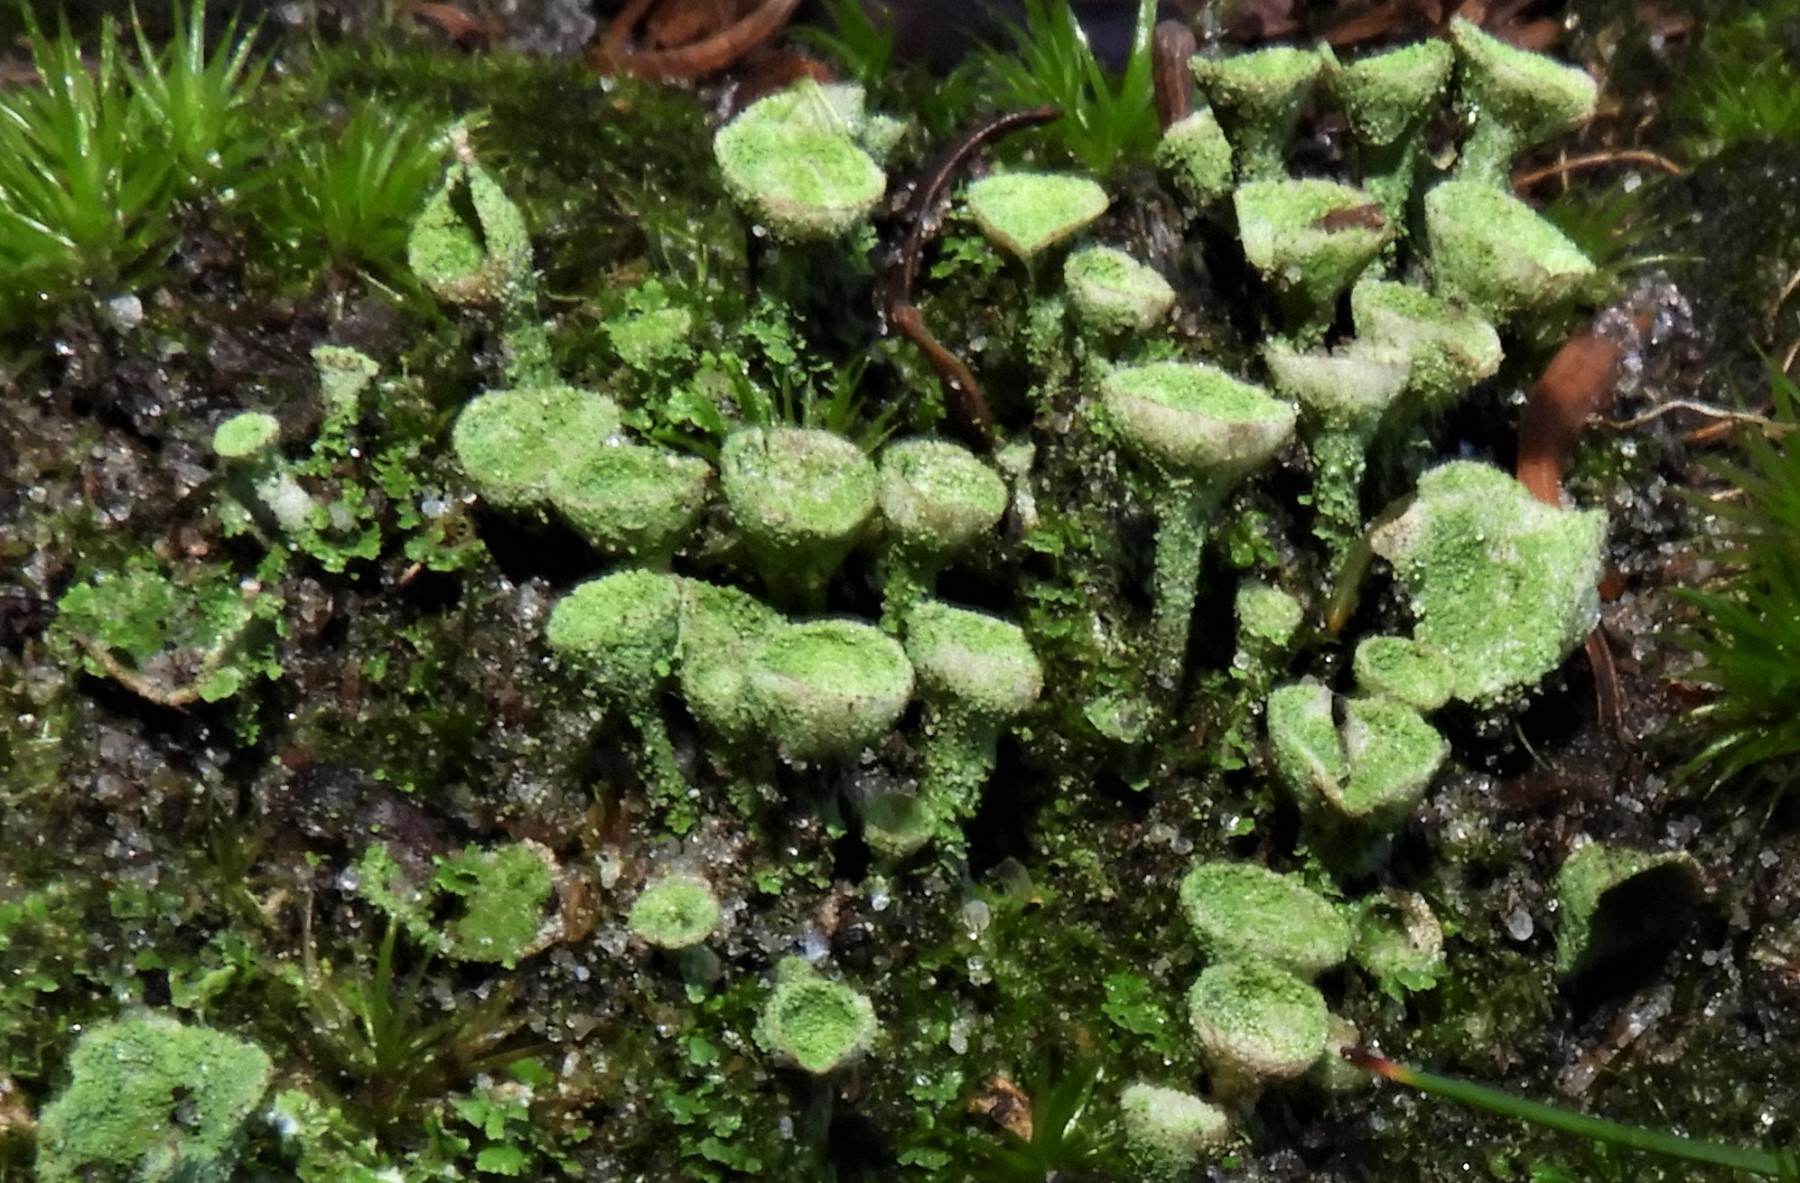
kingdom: Fungi
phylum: Ascomycota
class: Lecanoromycetes
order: Lecanorales
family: Cladoniaceae
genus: Cladonia
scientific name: Cladonia
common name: brungrøn bægerlav
